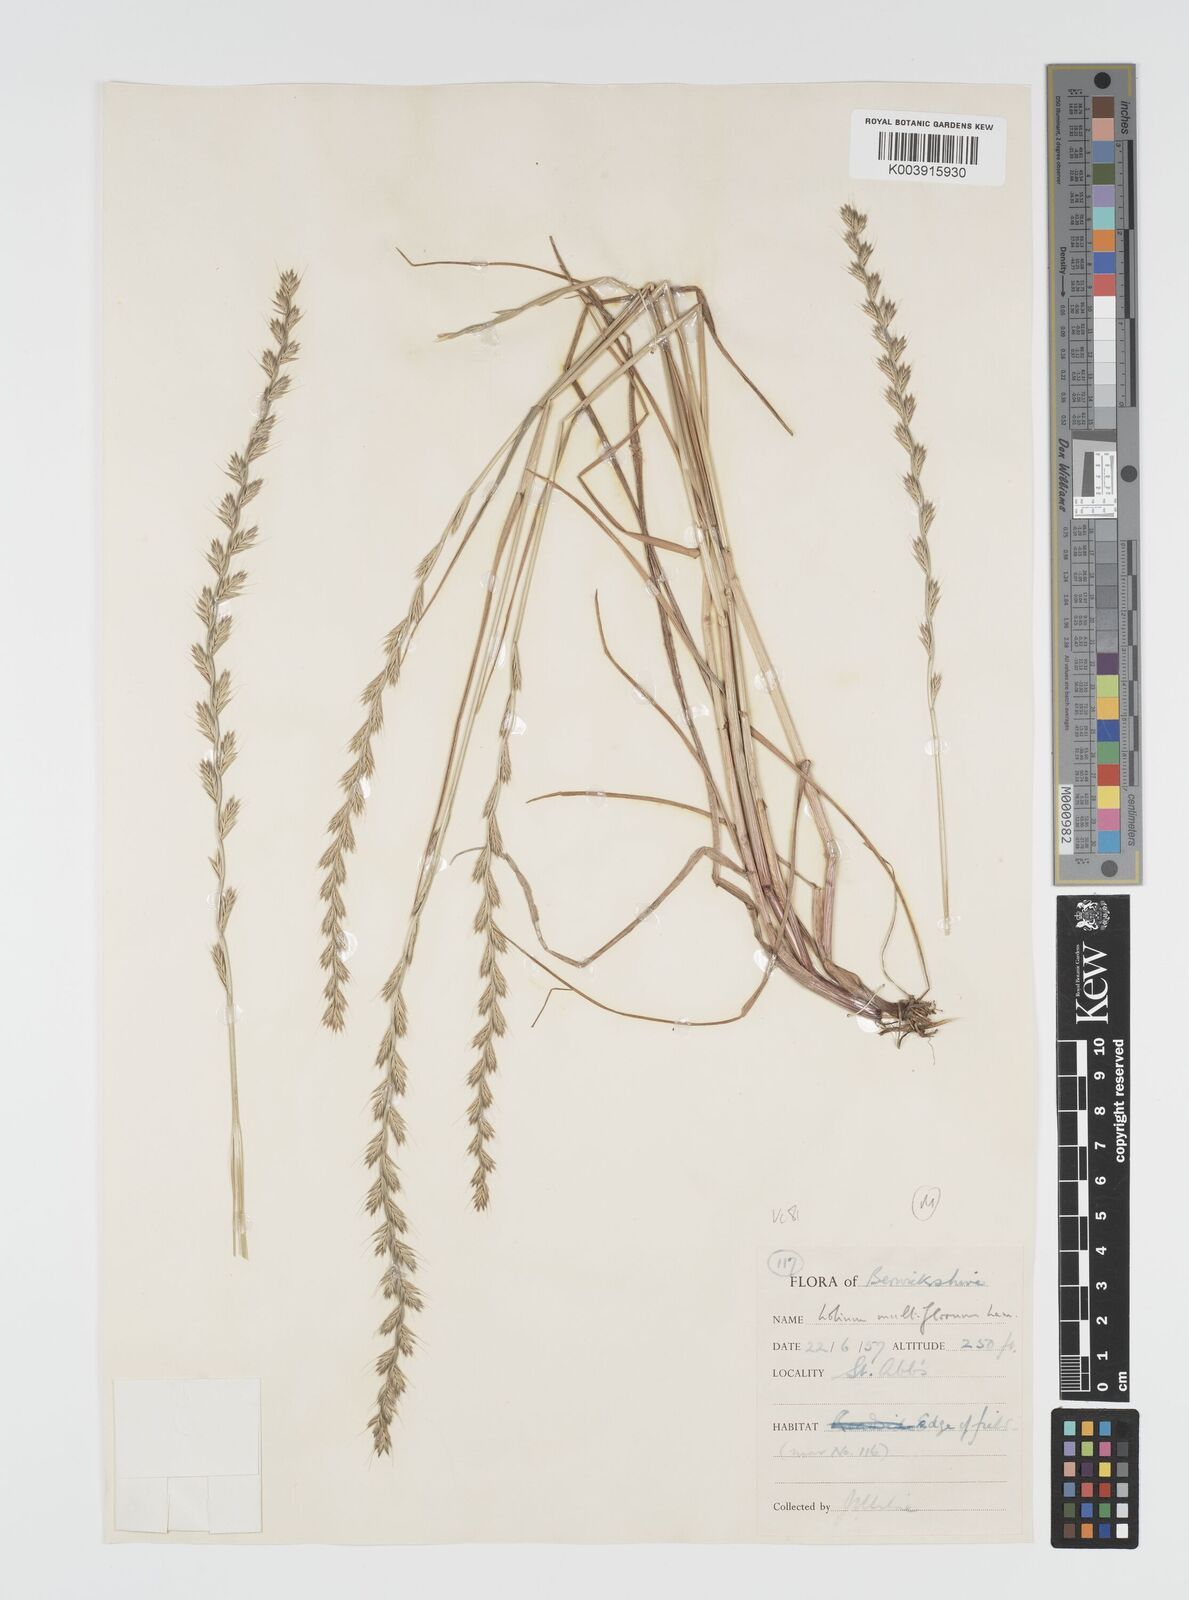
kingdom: Plantae
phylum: Tracheophyta
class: Liliopsida
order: Poales
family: Poaceae
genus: Lolium
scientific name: Lolium multiflorum
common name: Annual ryegrass
